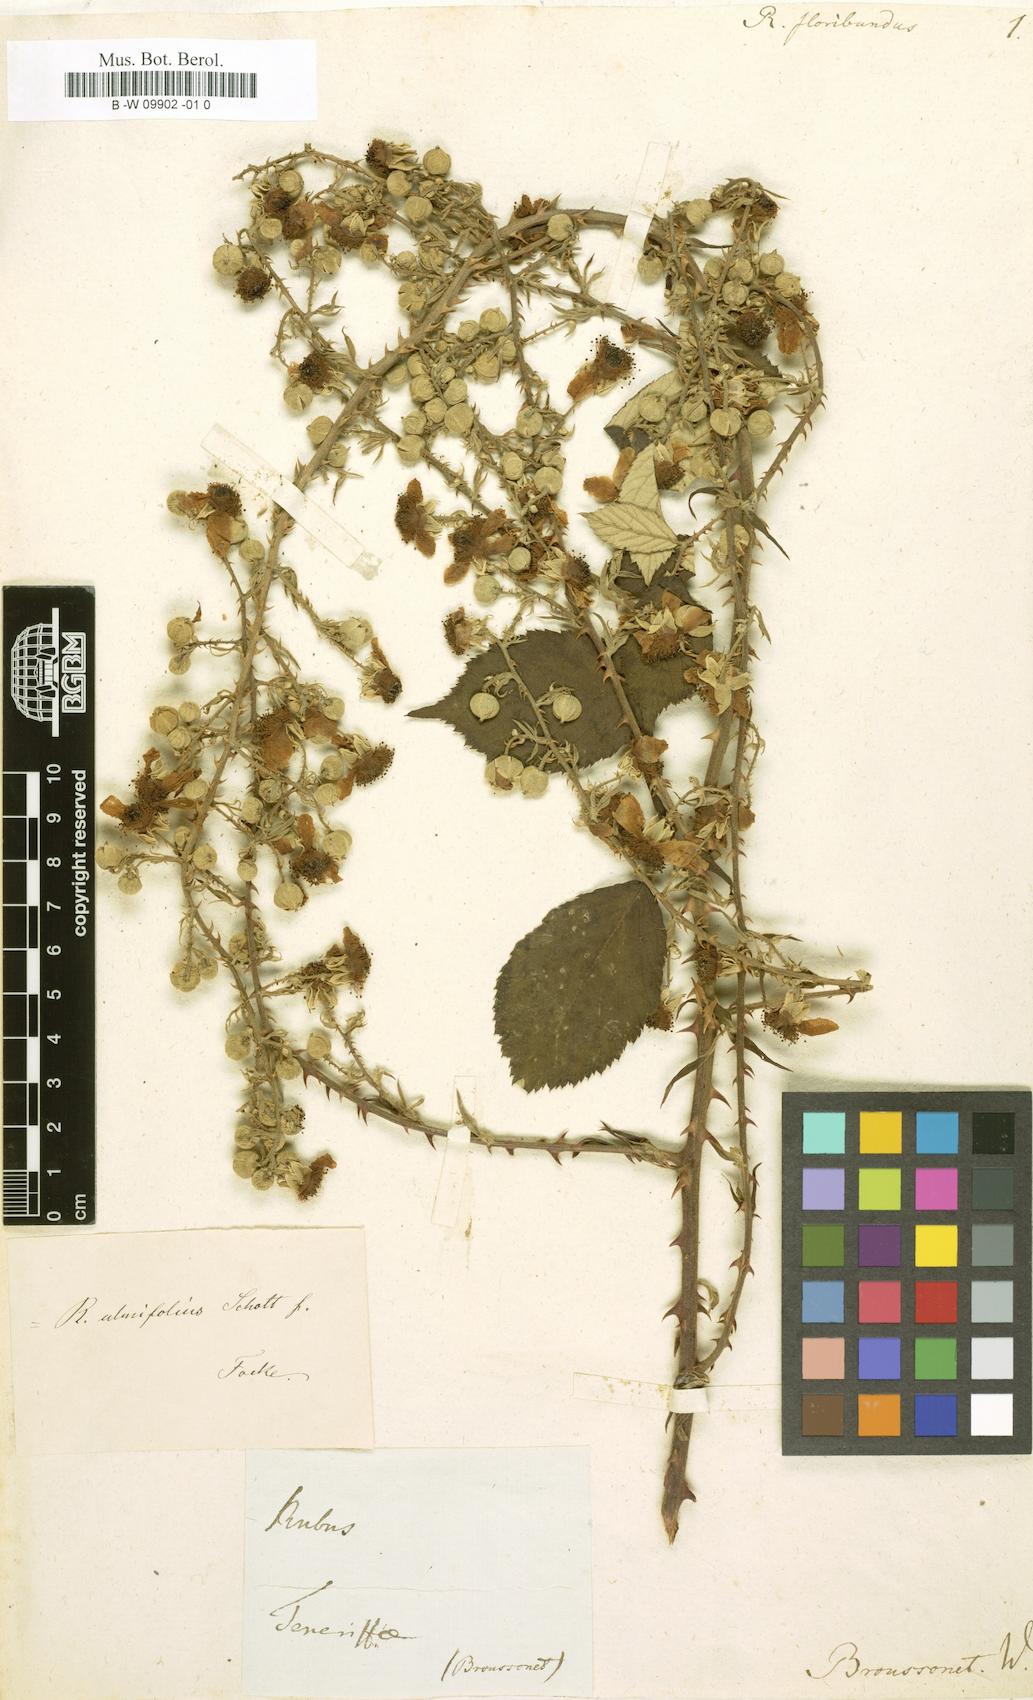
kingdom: Plantae
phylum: Tracheophyta
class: Magnoliopsida
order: Rosales
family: Rosaceae
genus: Rubus
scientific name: Rubus floribundus
